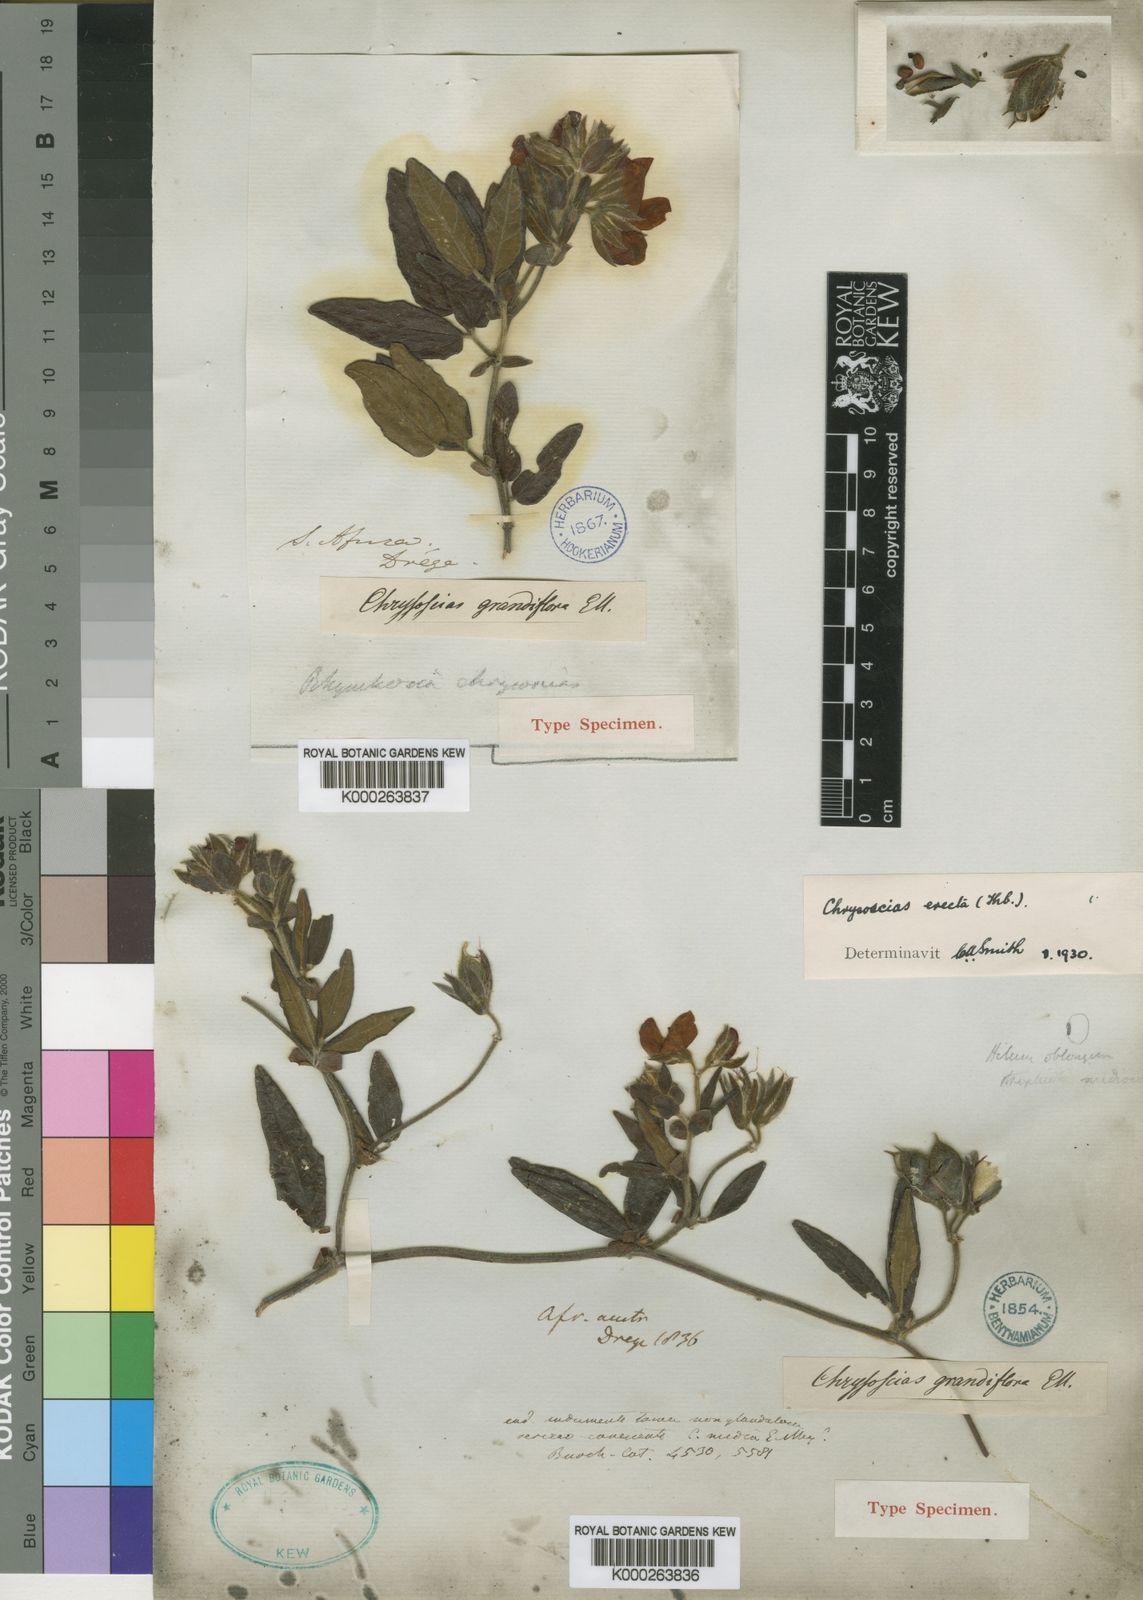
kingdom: Plantae
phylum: Tracheophyta
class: Magnoliopsida
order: Fabales
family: Fabaceae
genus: Rhynchosia
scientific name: Rhynchosia tomentosa
